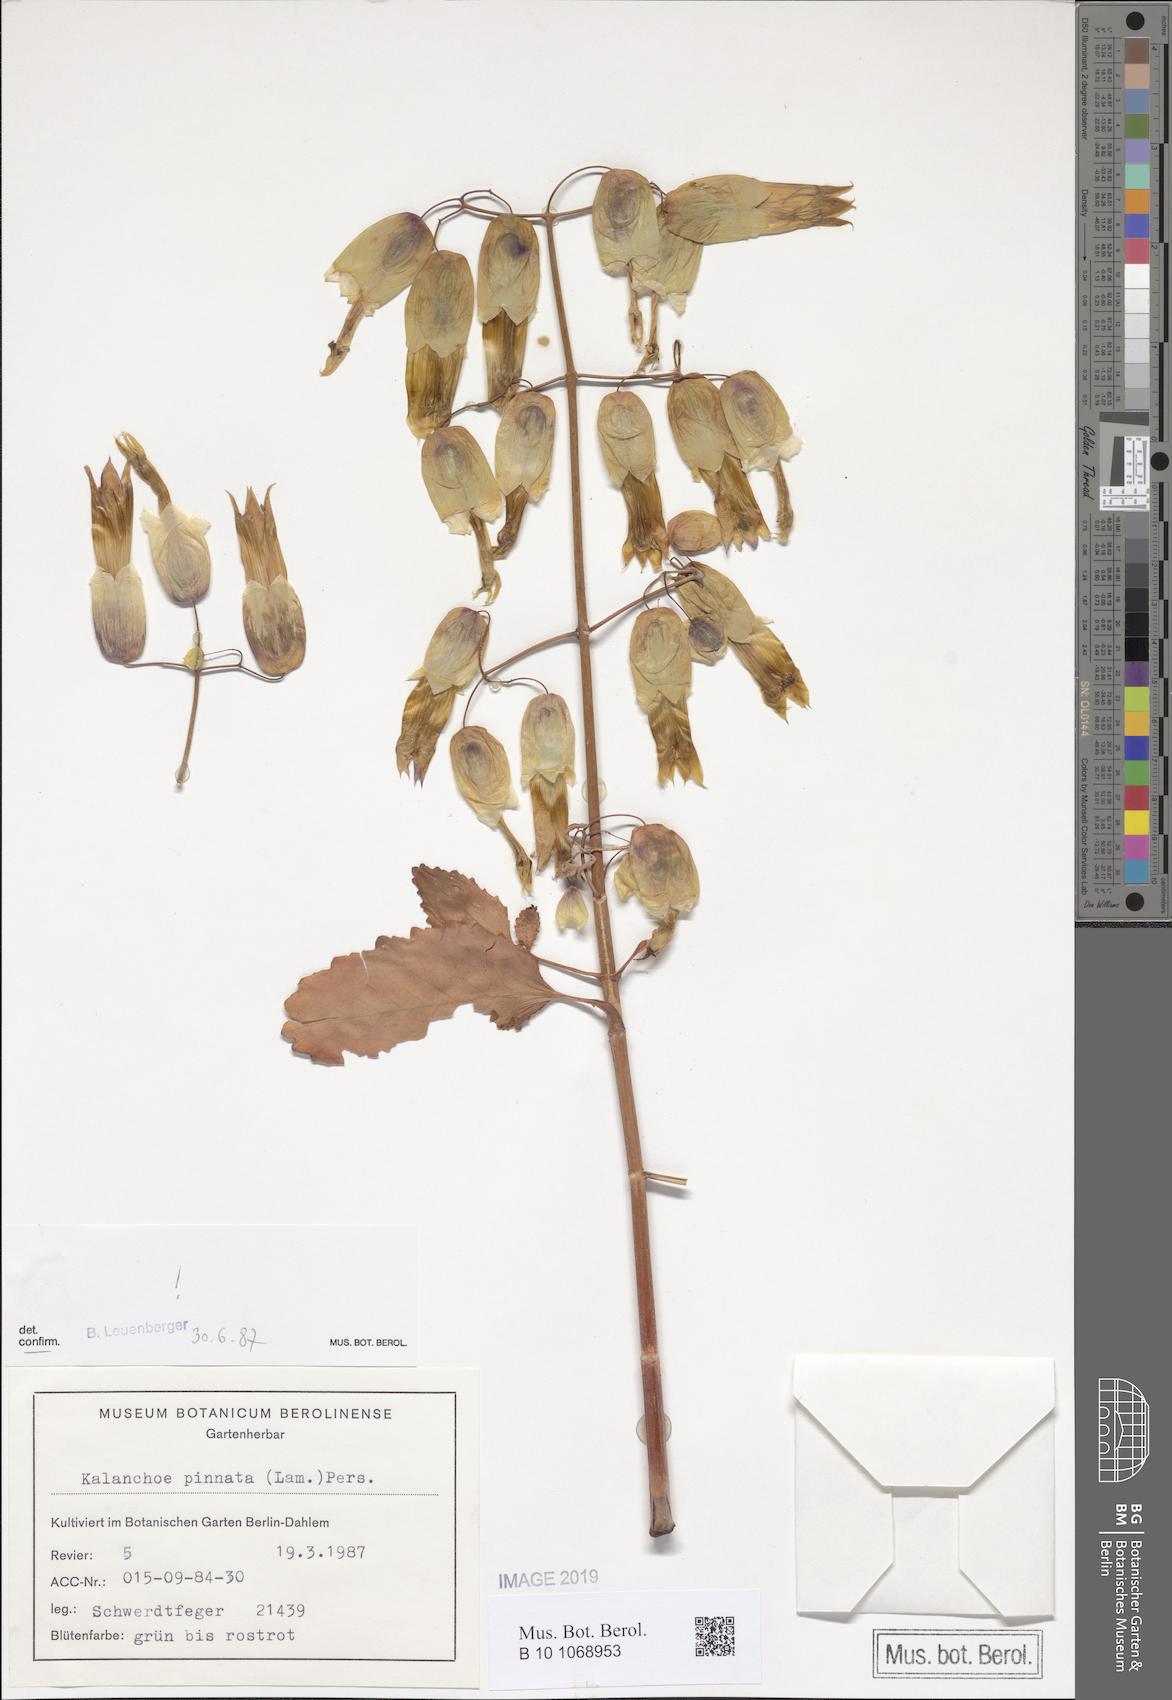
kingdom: Plantae
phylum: Tracheophyta
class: Magnoliopsida
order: Saxifragales
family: Crassulaceae
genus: Kalanchoe
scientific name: Kalanchoe pinnata
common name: Cathedral bells
